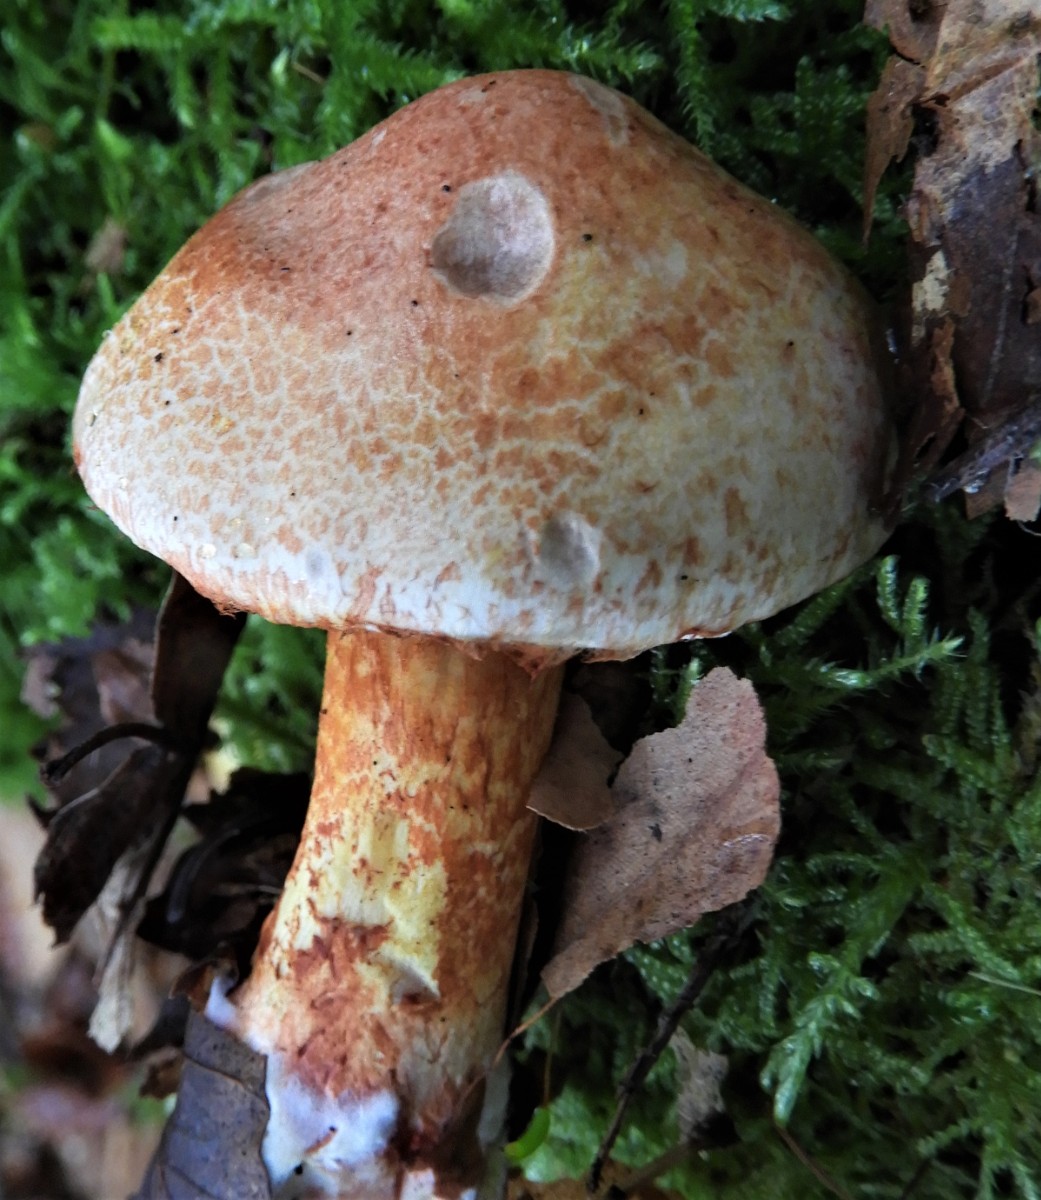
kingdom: Fungi
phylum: Basidiomycota
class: Agaricomycetes
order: Agaricales
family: Cortinariaceae
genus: Cortinarius
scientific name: Cortinarius bolaris
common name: cinnoberskællet slørhat
